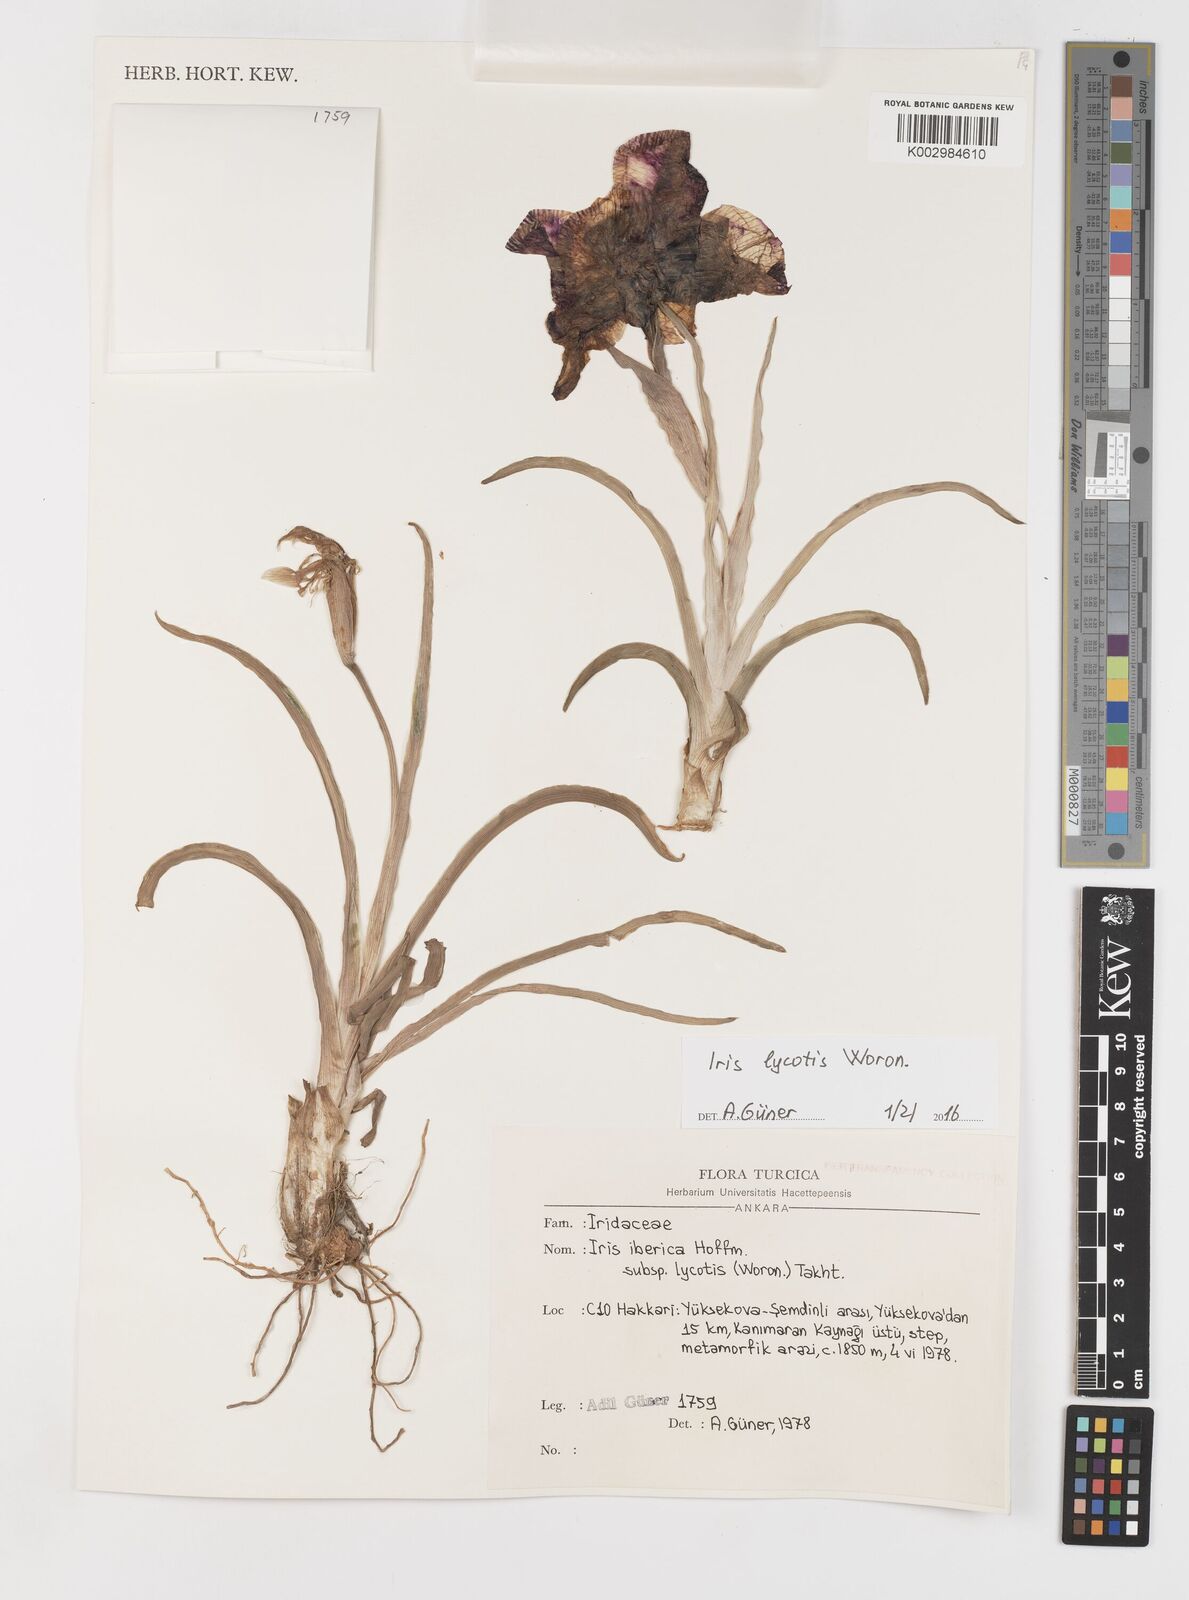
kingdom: Plantae
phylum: Tracheophyta
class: Liliopsida
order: Asparagales
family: Iridaceae
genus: Iris
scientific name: Iris lycotis
